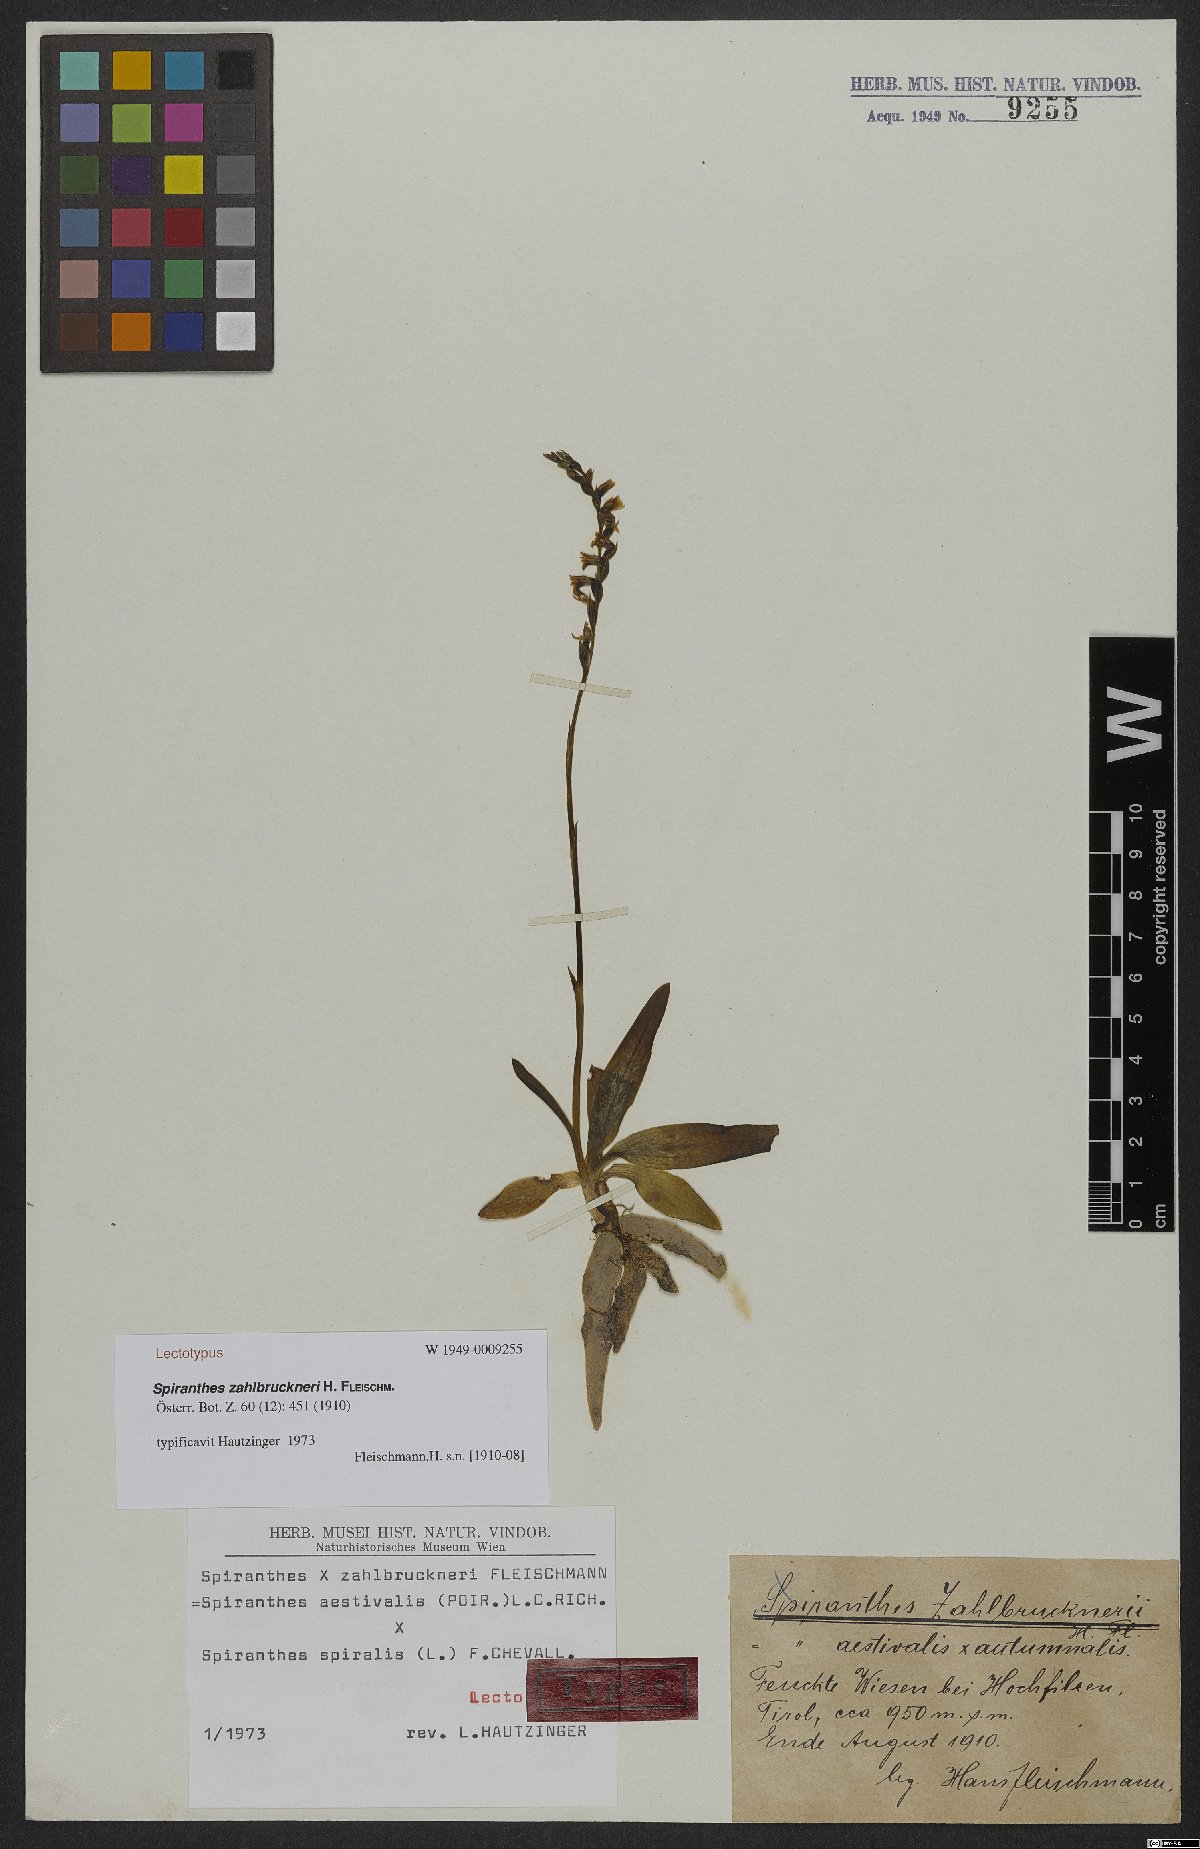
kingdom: Plantae
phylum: Tracheophyta
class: Liliopsida
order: Asparagales
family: Orchidaceae
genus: Spiranthes
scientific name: Spiranthes zahlbruckneri
